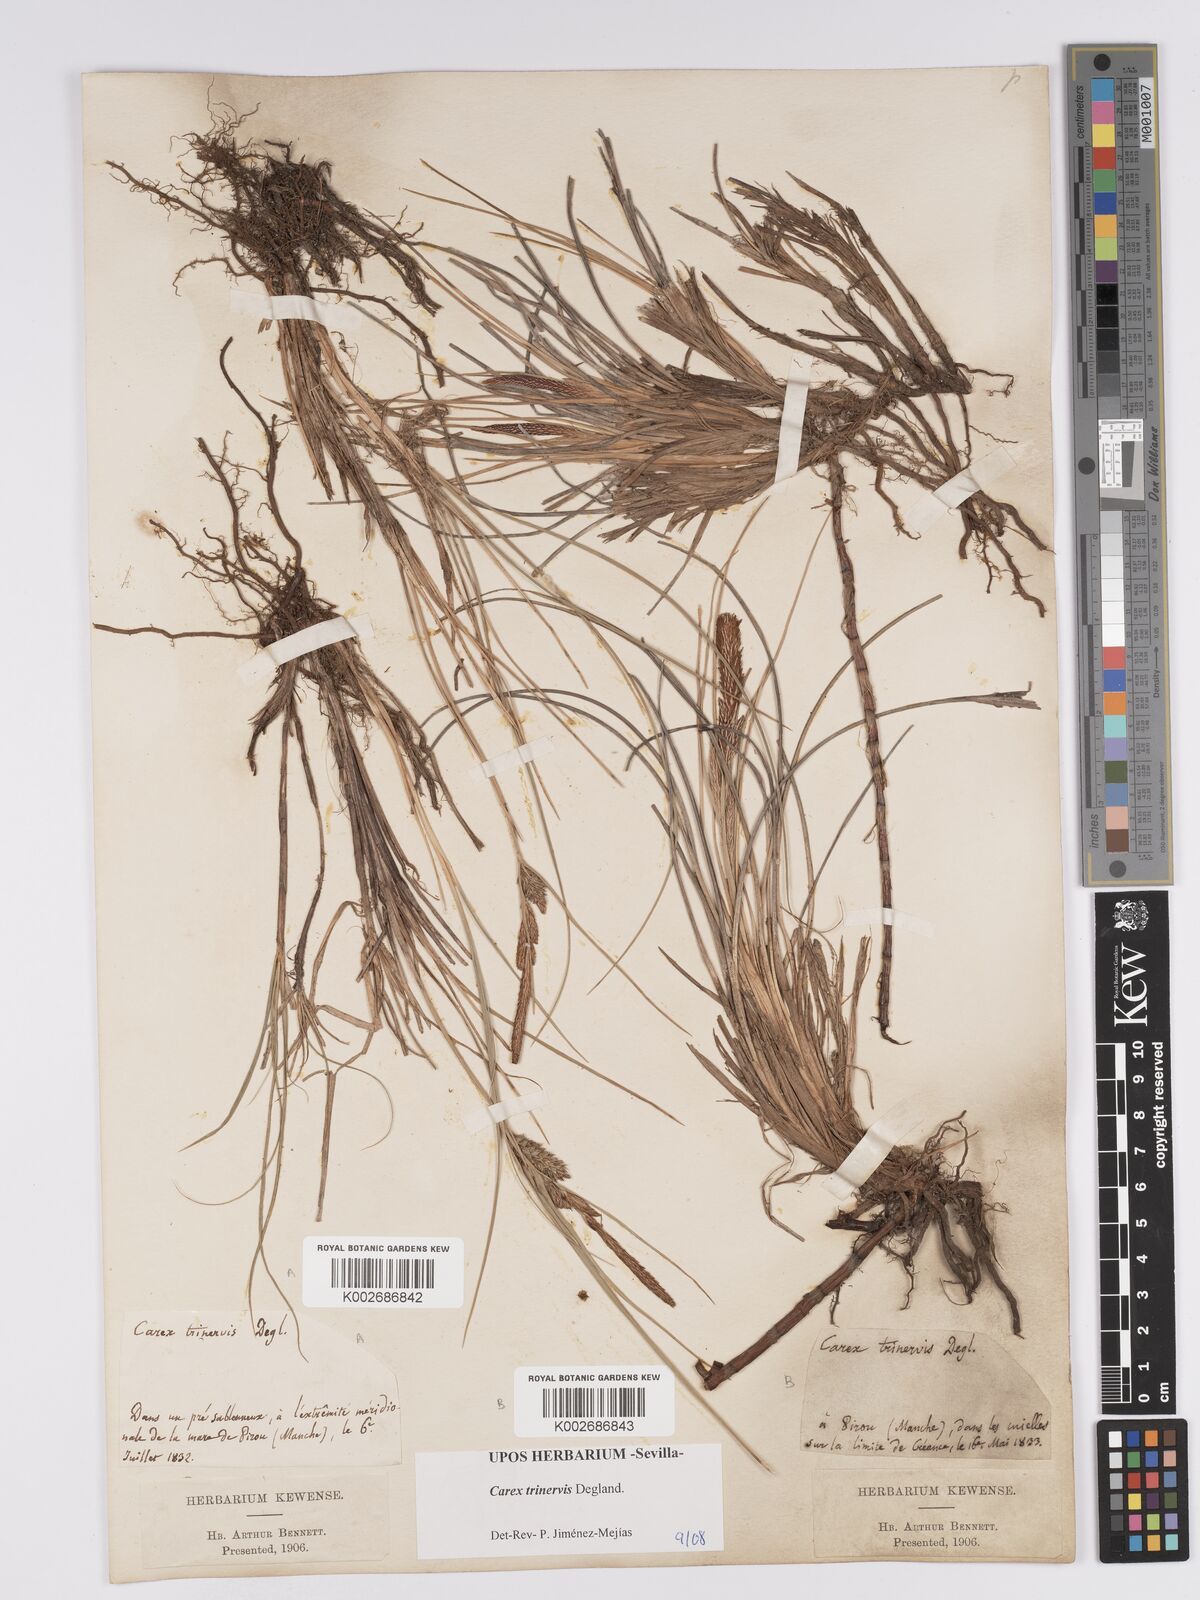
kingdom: Plantae
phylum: Tracheophyta
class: Liliopsida
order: Poales
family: Cyperaceae
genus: Carex
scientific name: Carex trinervis
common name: Three-nerved sedge
